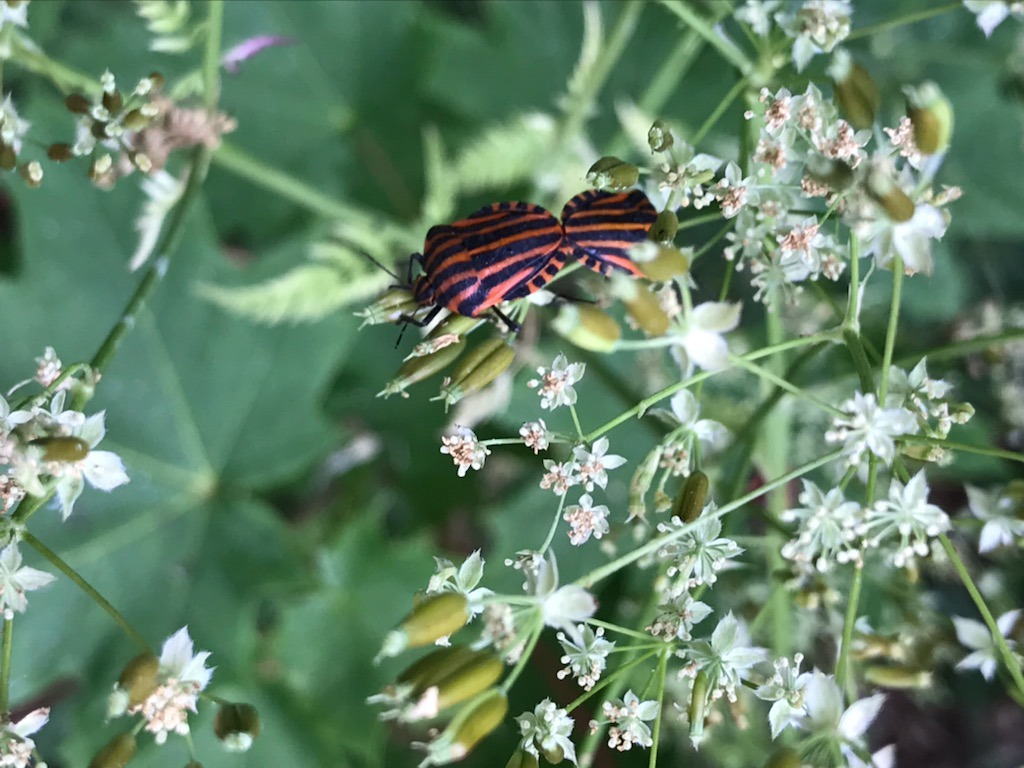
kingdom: Animalia
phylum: Arthropoda
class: Insecta
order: Hemiptera
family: Pentatomidae
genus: Graphosoma
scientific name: Graphosoma italicum
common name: Stribetæge
